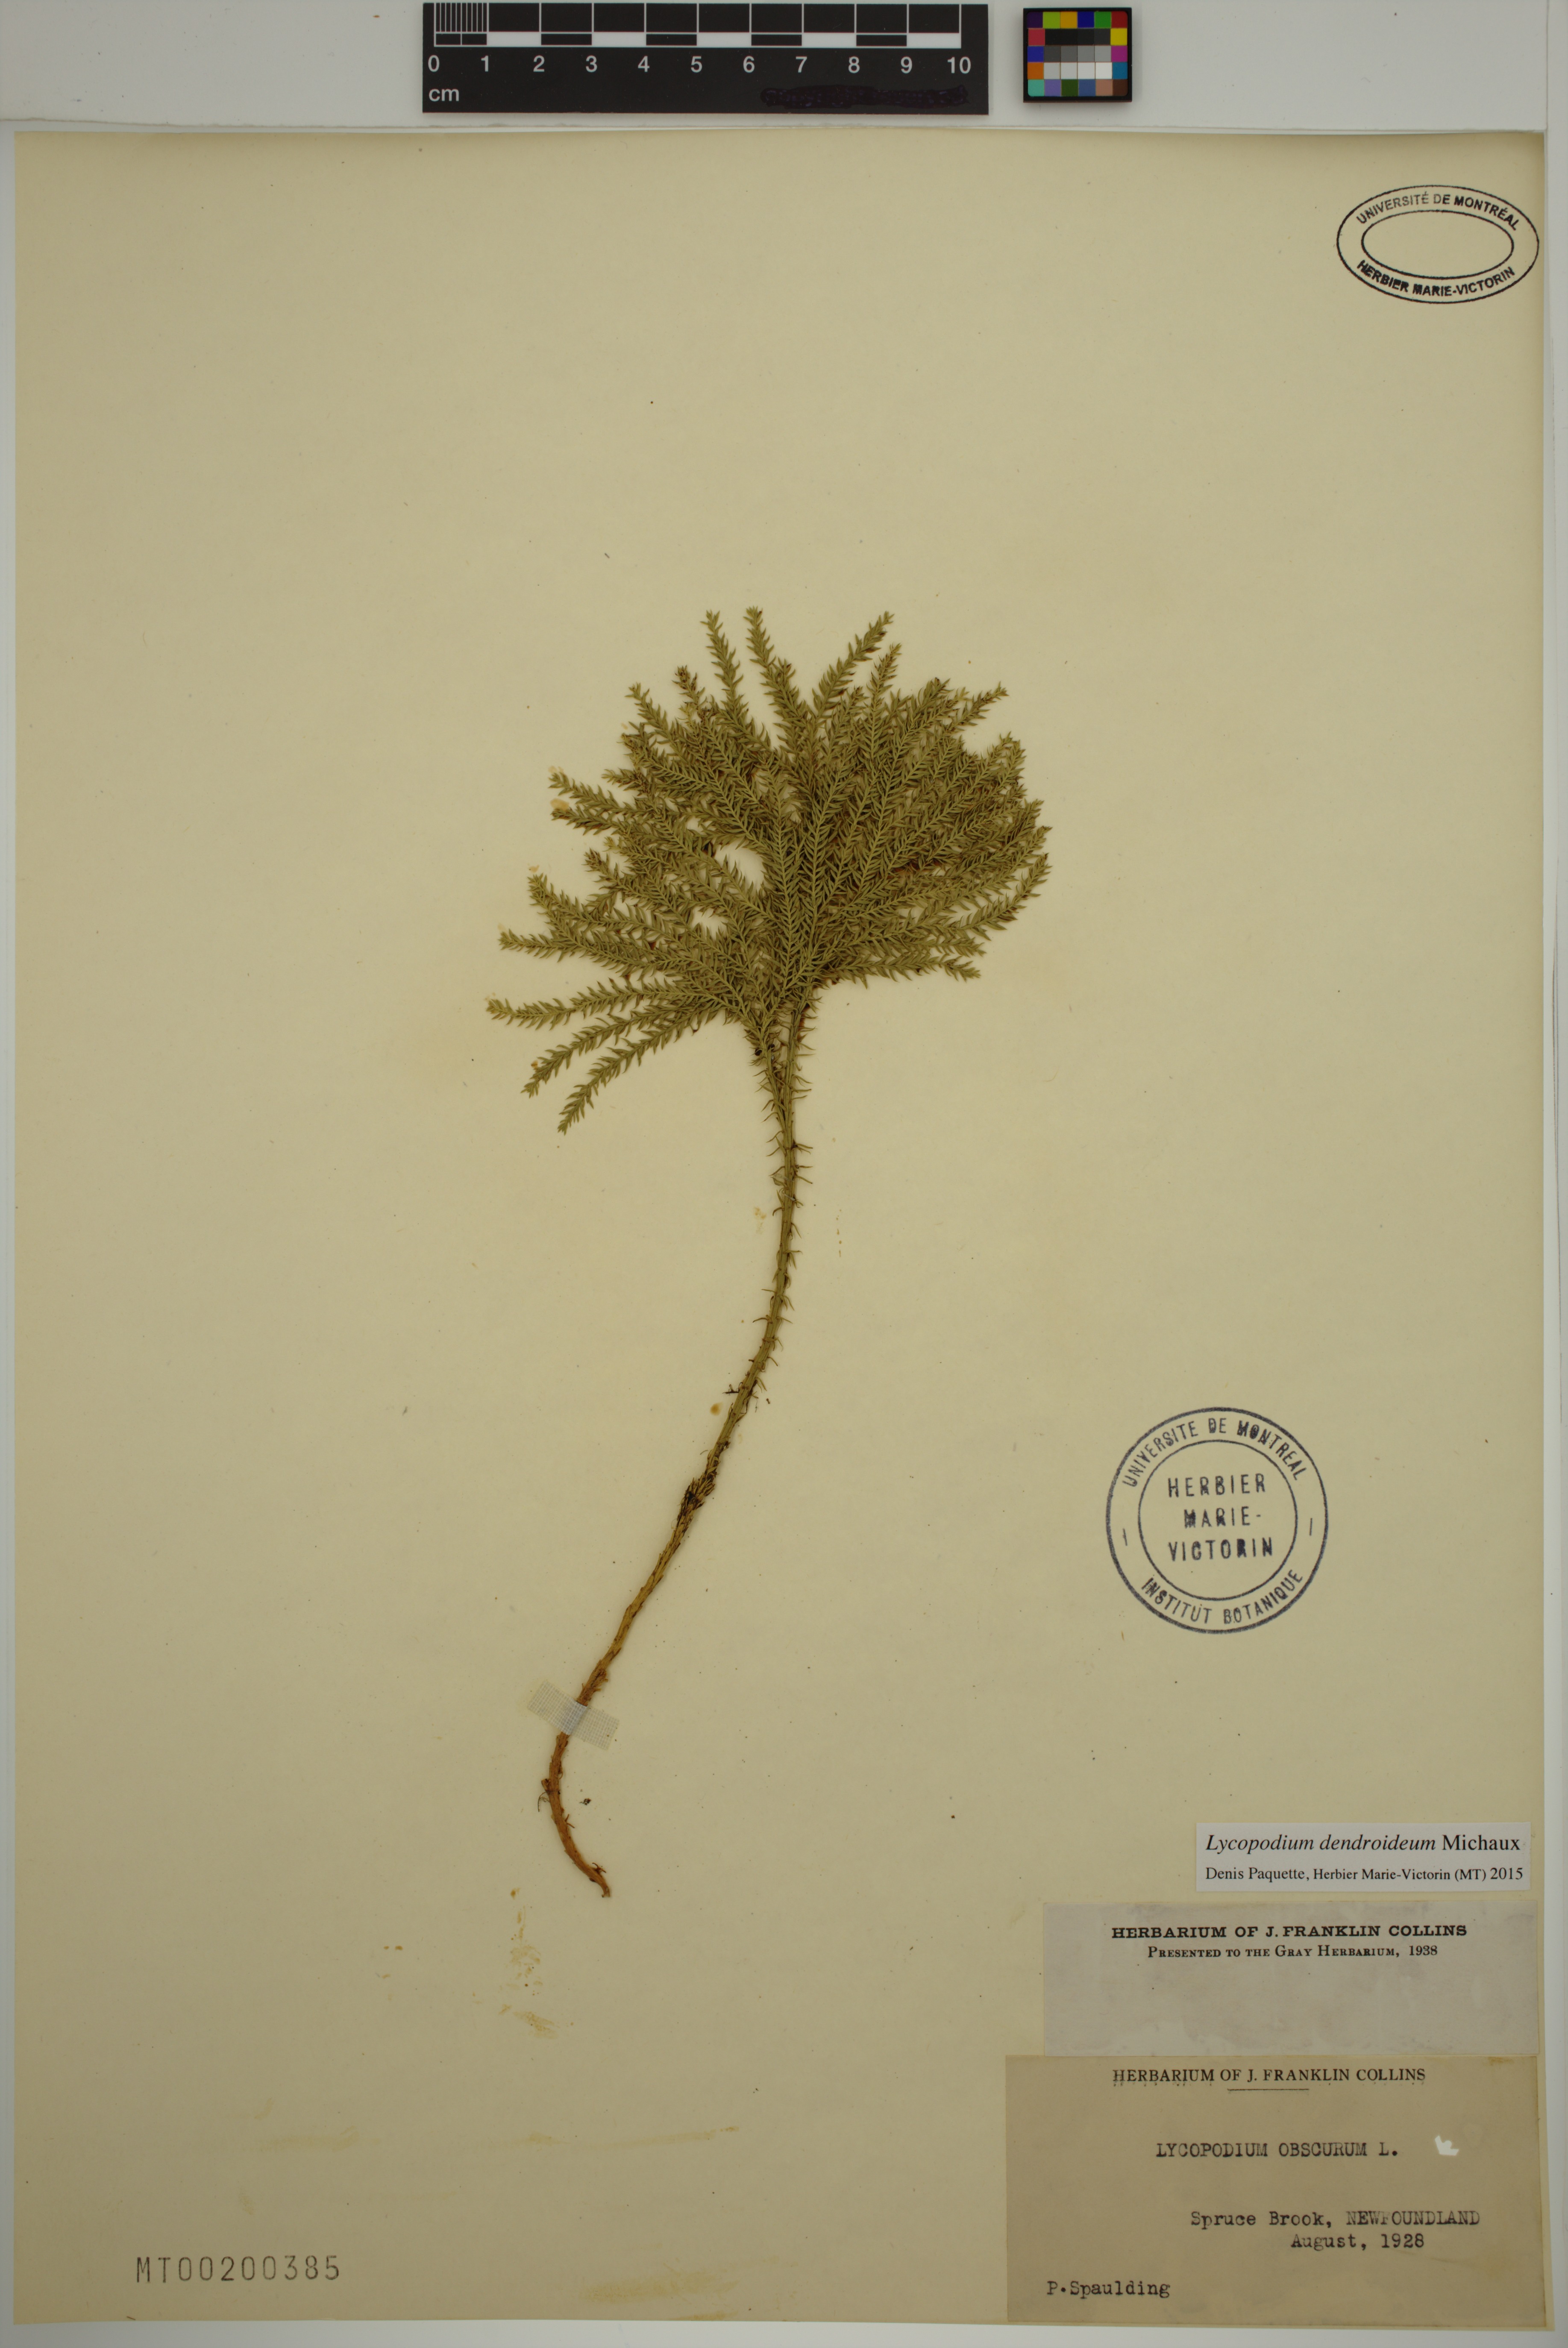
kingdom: Plantae
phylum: Tracheophyta
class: Lycopodiopsida
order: Lycopodiales
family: Lycopodiaceae
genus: Dendrolycopodium
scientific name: Dendrolycopodium dendroideum
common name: Northern tree-clubmoss
